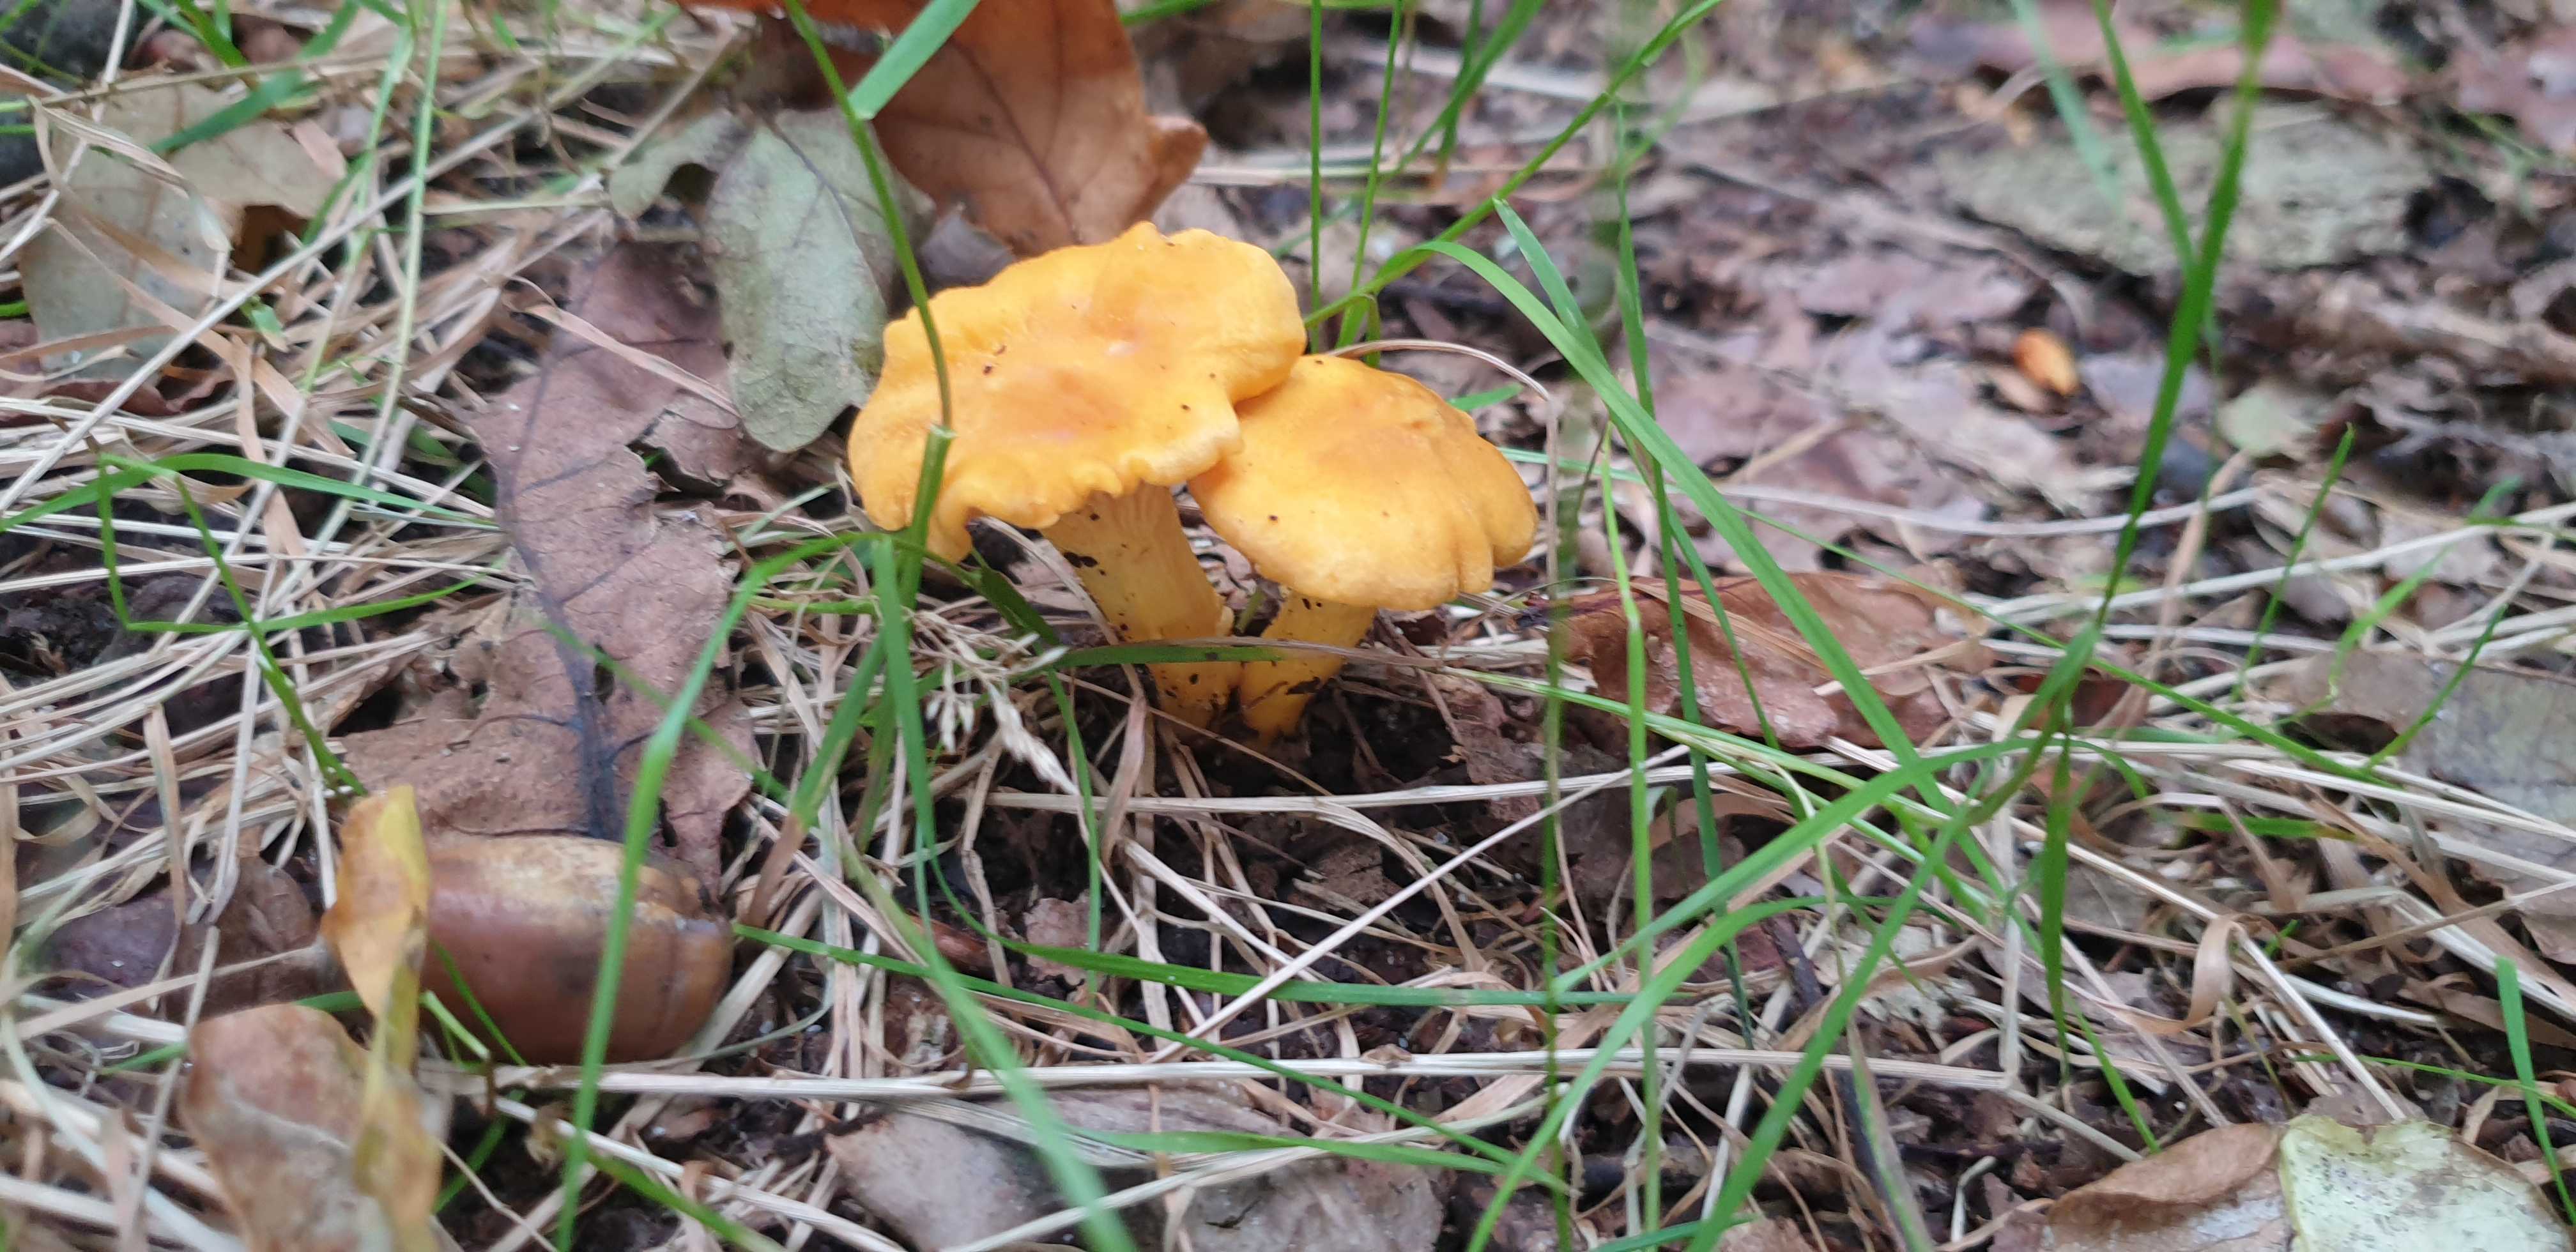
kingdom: Fungi
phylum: Basidiomycota
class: Agaricomycetes
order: Cantharellales
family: Hydnaceae
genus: Cantharellus
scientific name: Cantharellus cibarius
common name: almindelig kantarel
